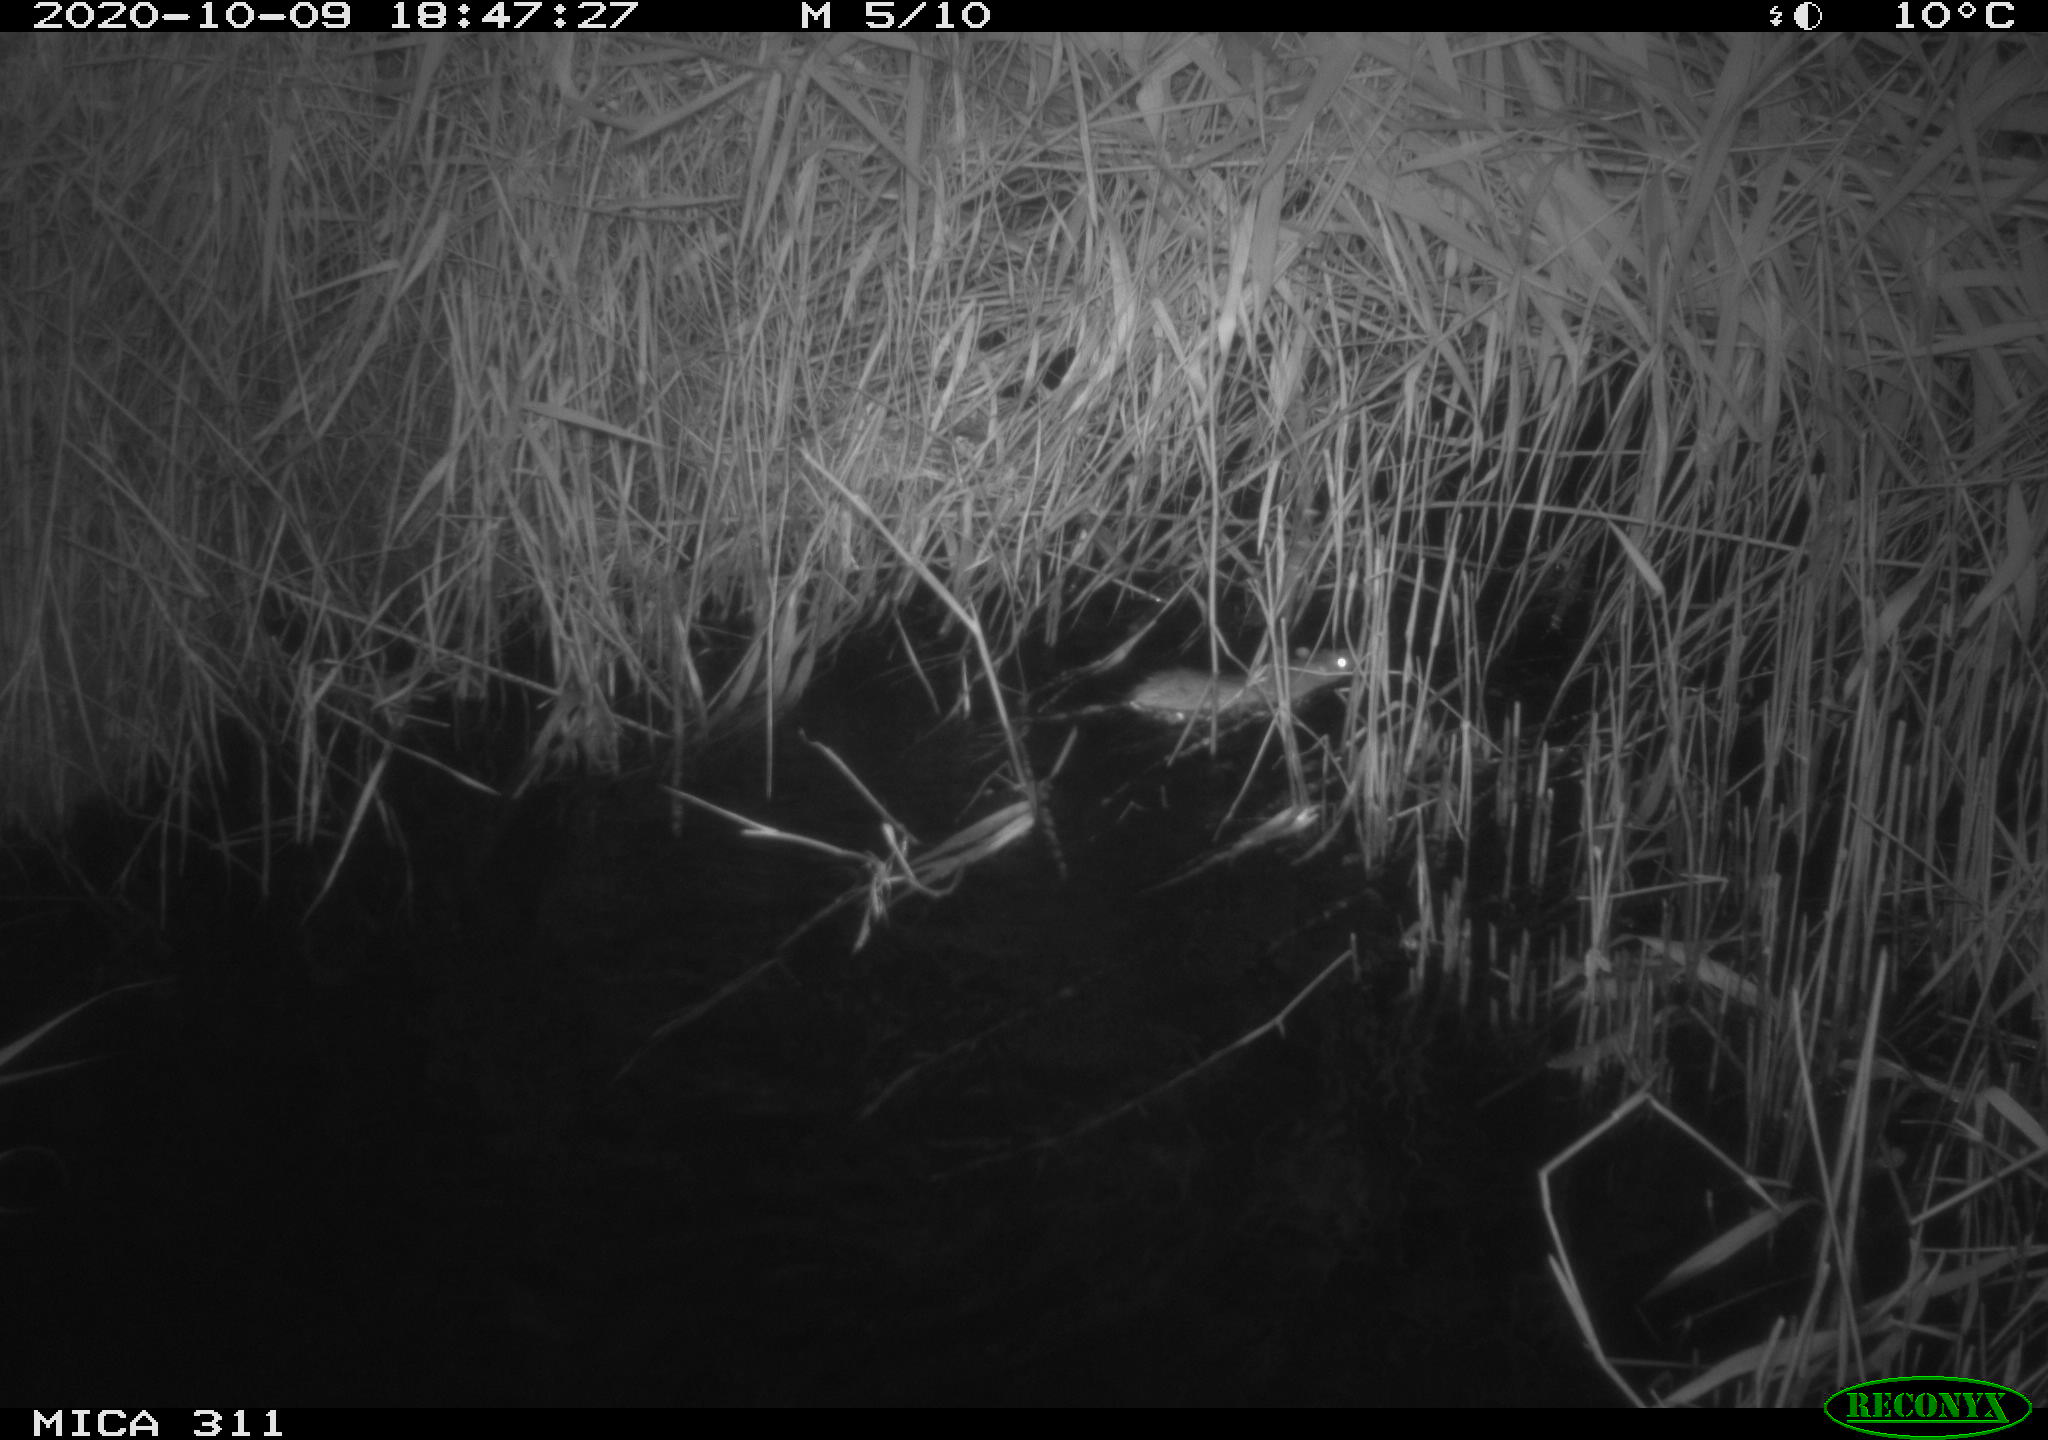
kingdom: Animalia
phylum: Chordata
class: Mammalia
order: Rodentia
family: Muridae
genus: Rattus
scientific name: Rattus norvegicus
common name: Brown rat
